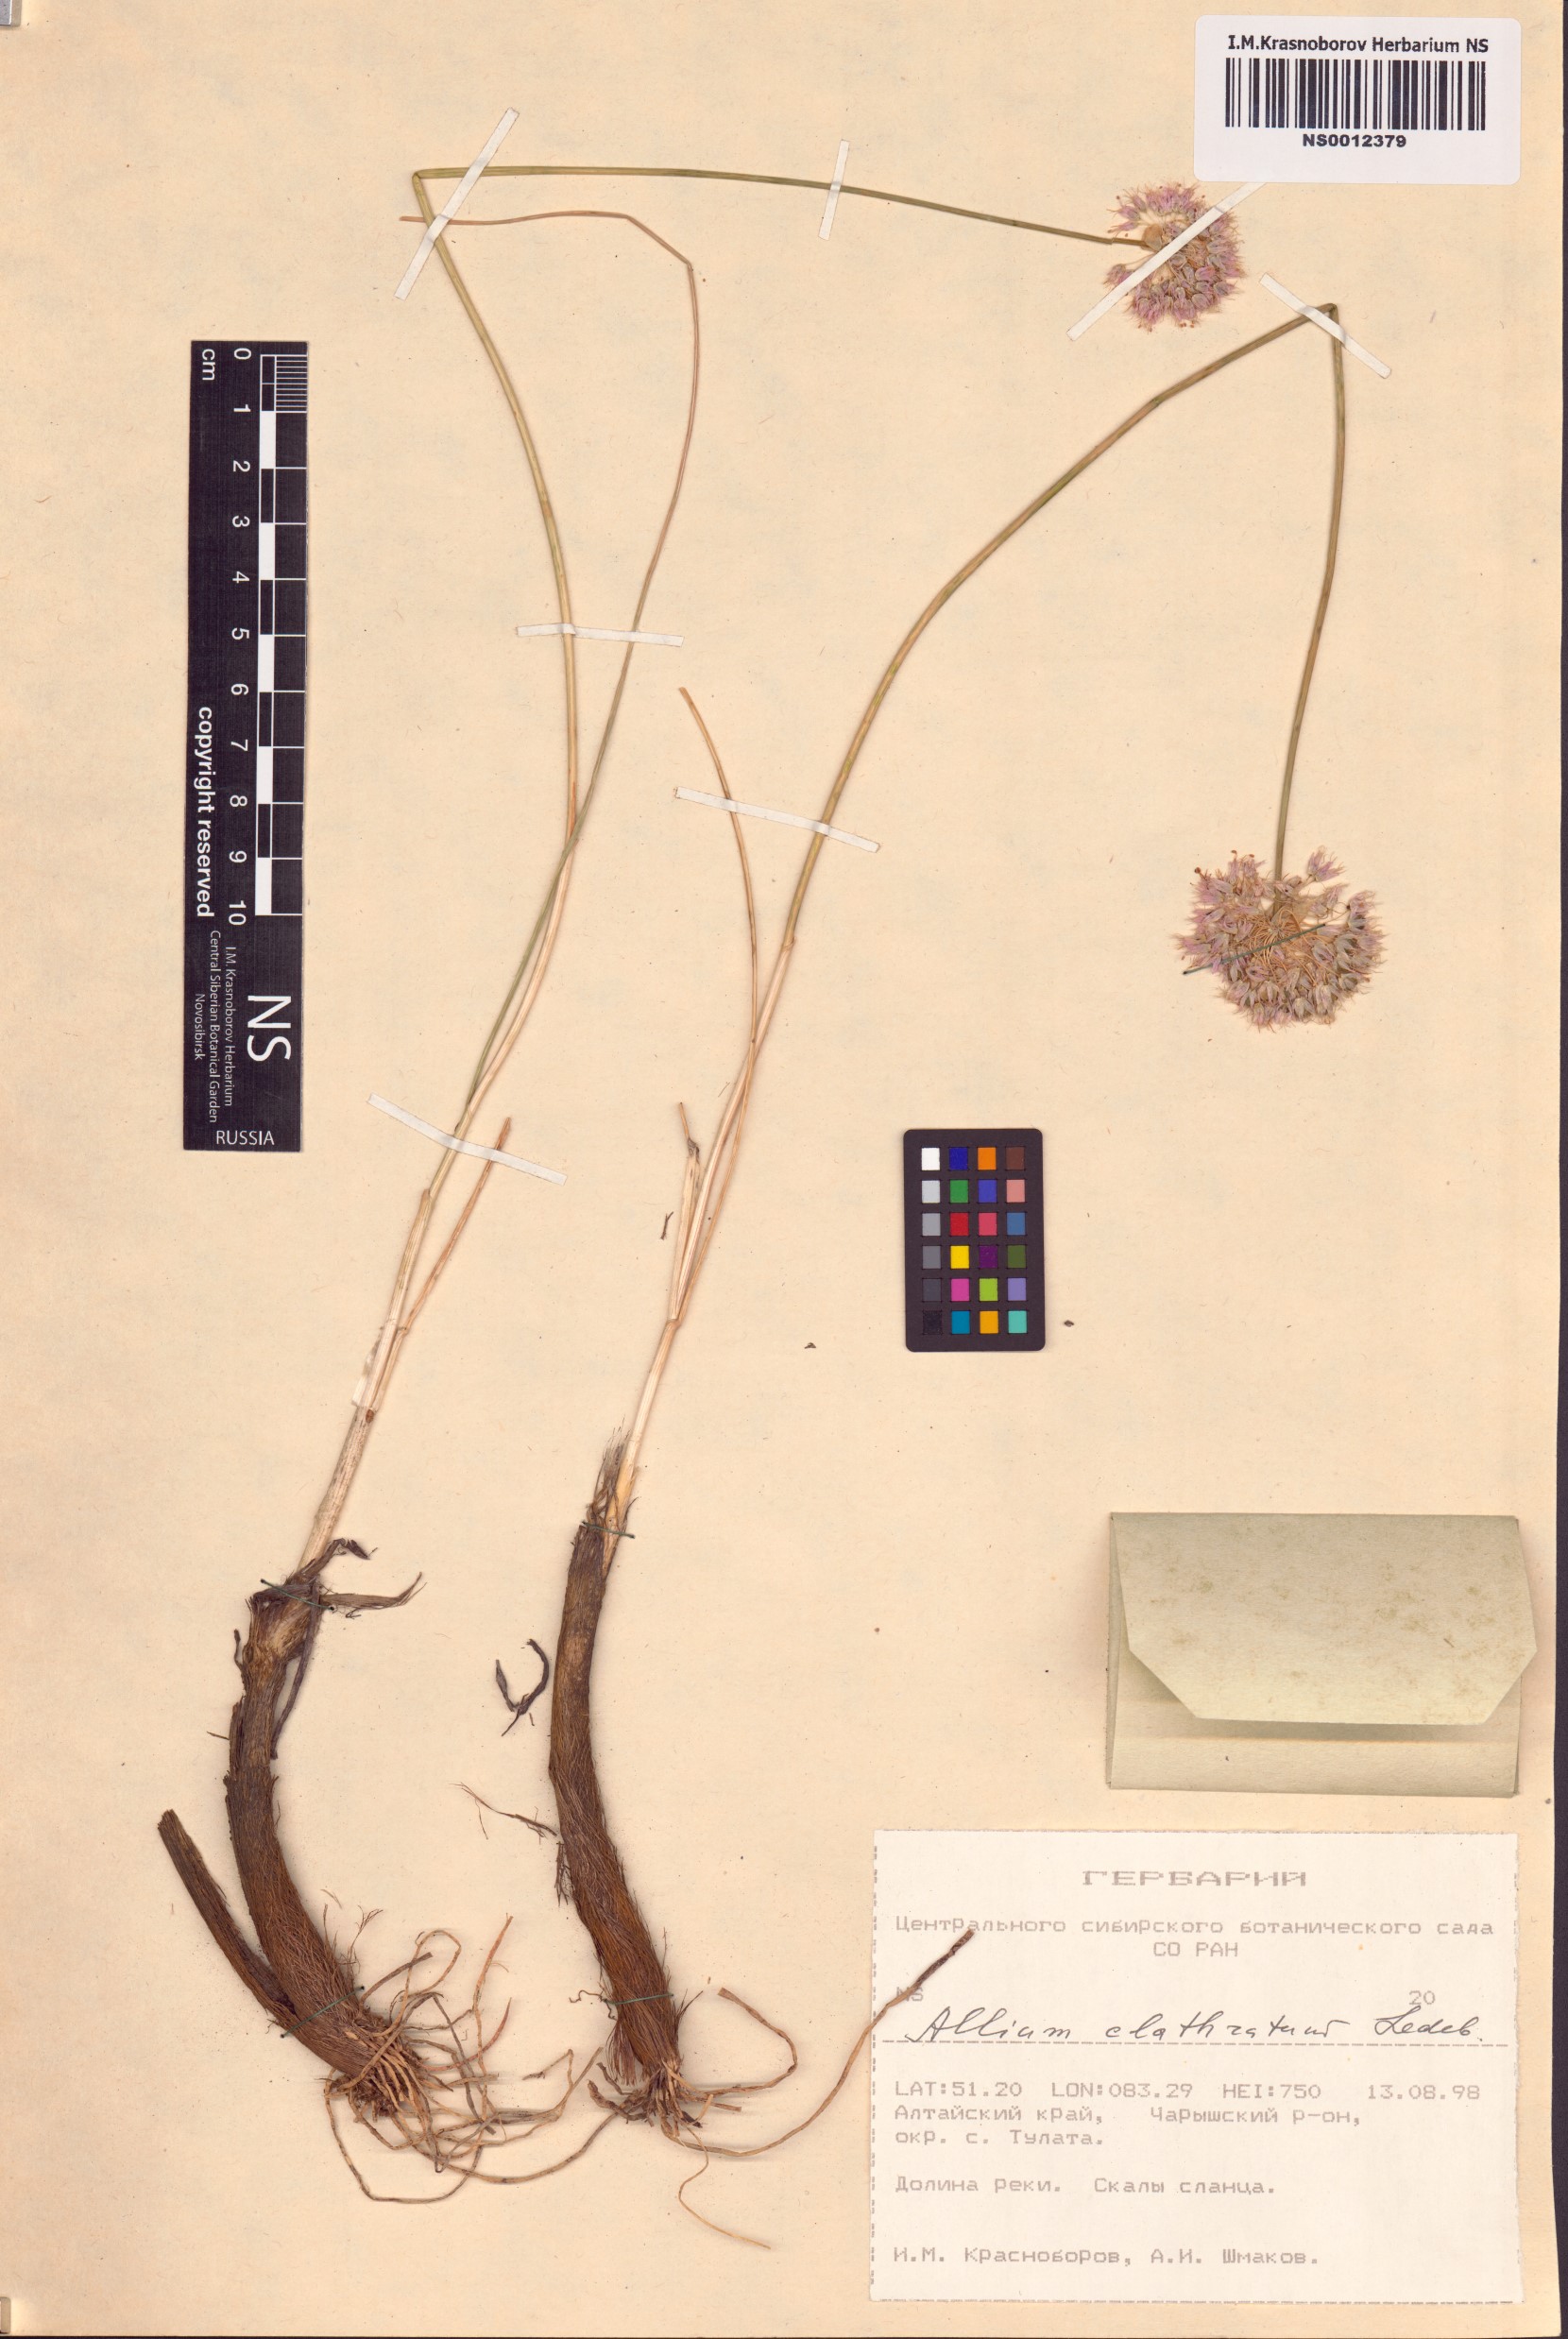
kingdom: Plantae
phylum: Tracheophyta
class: Liliopsida
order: Asparagales
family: Amaryllidaceae
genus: Allium
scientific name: Allium clathratum
